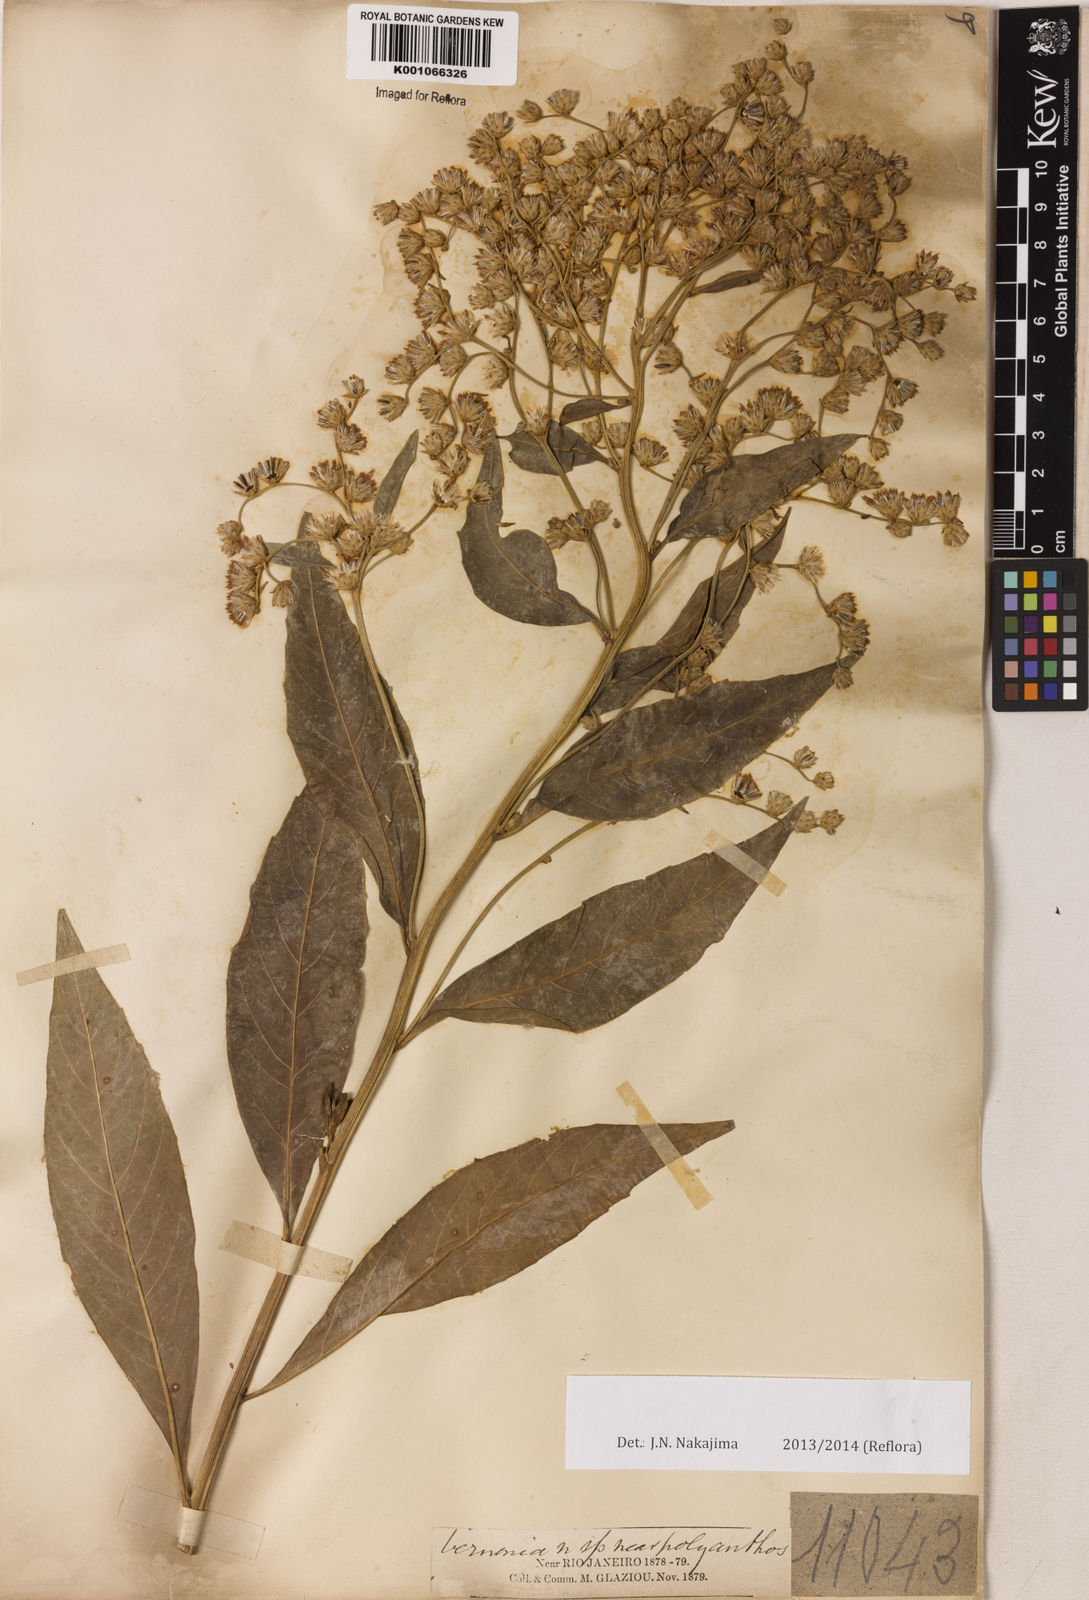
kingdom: Plantae
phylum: Tracheophyta
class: Magnoliopsida
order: Asterales
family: Asteraceae
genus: Vernonia
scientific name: Vernonia
